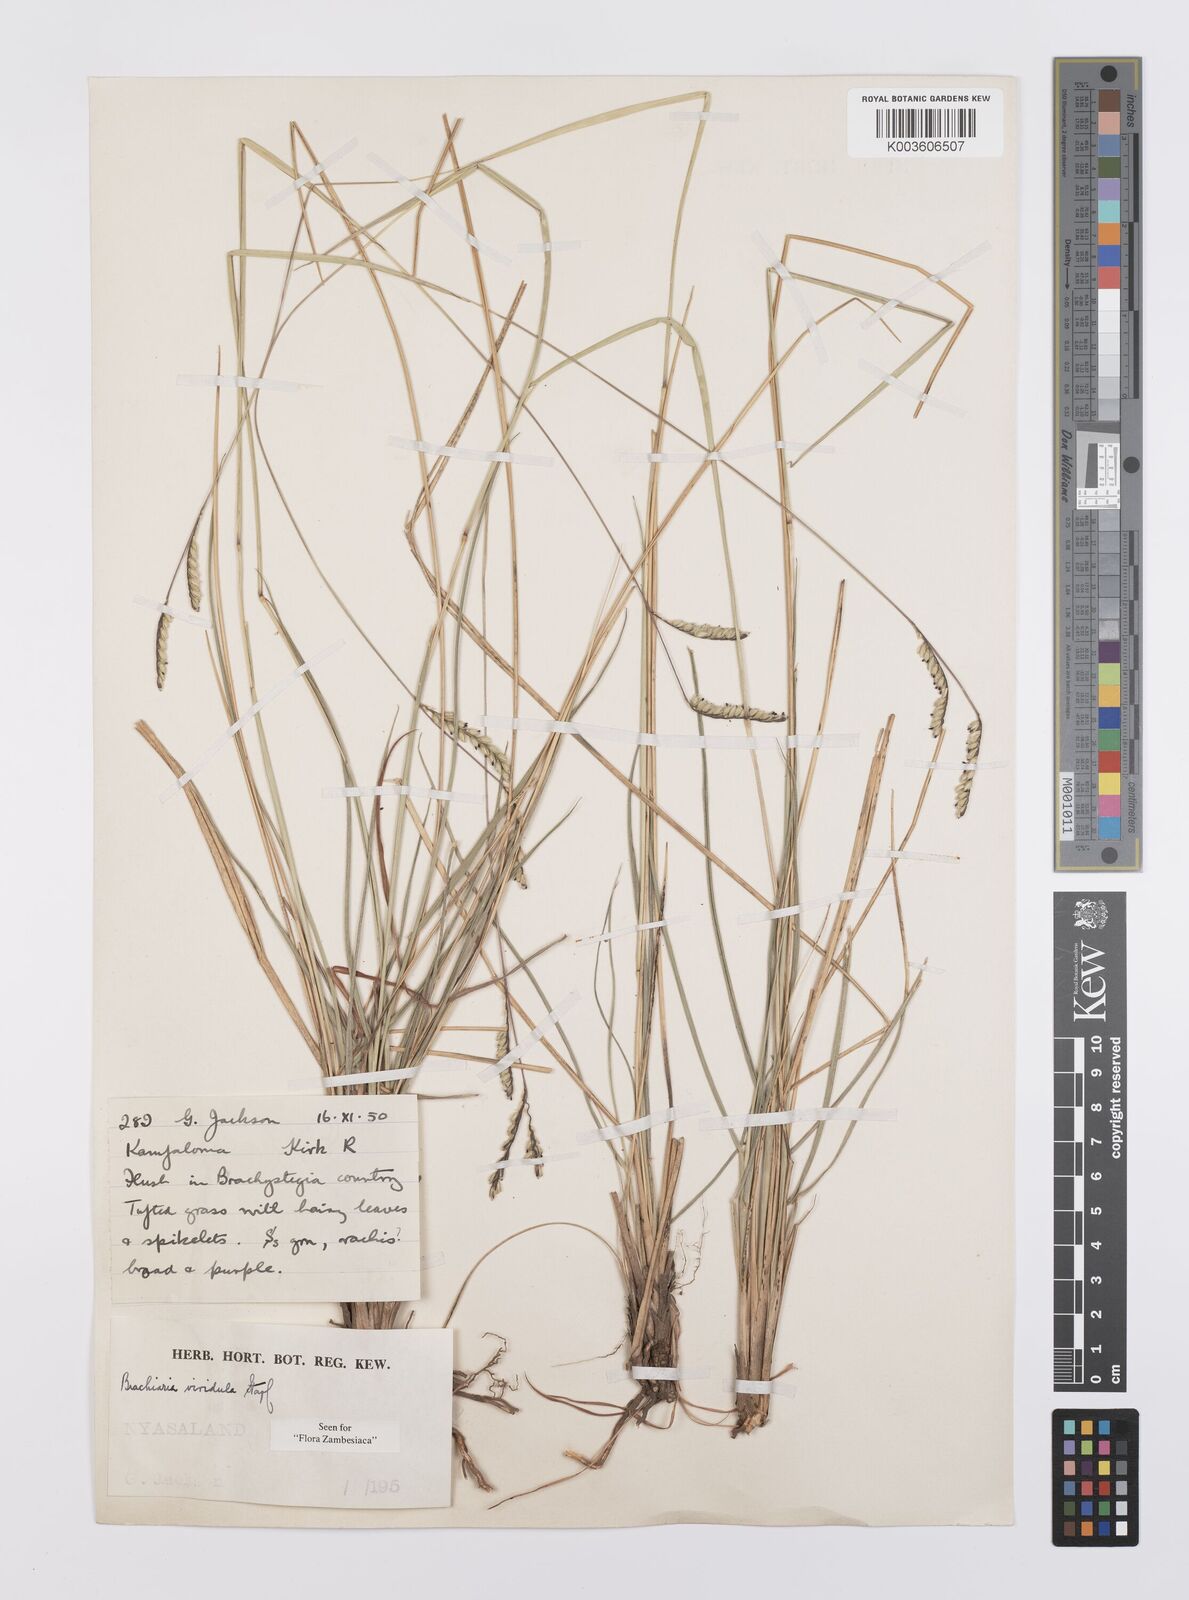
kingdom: Plantae
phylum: Tracheophyta
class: Liliopsida
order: Poales
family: Poaceae
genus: Urochloa
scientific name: Urochloa bovonei
